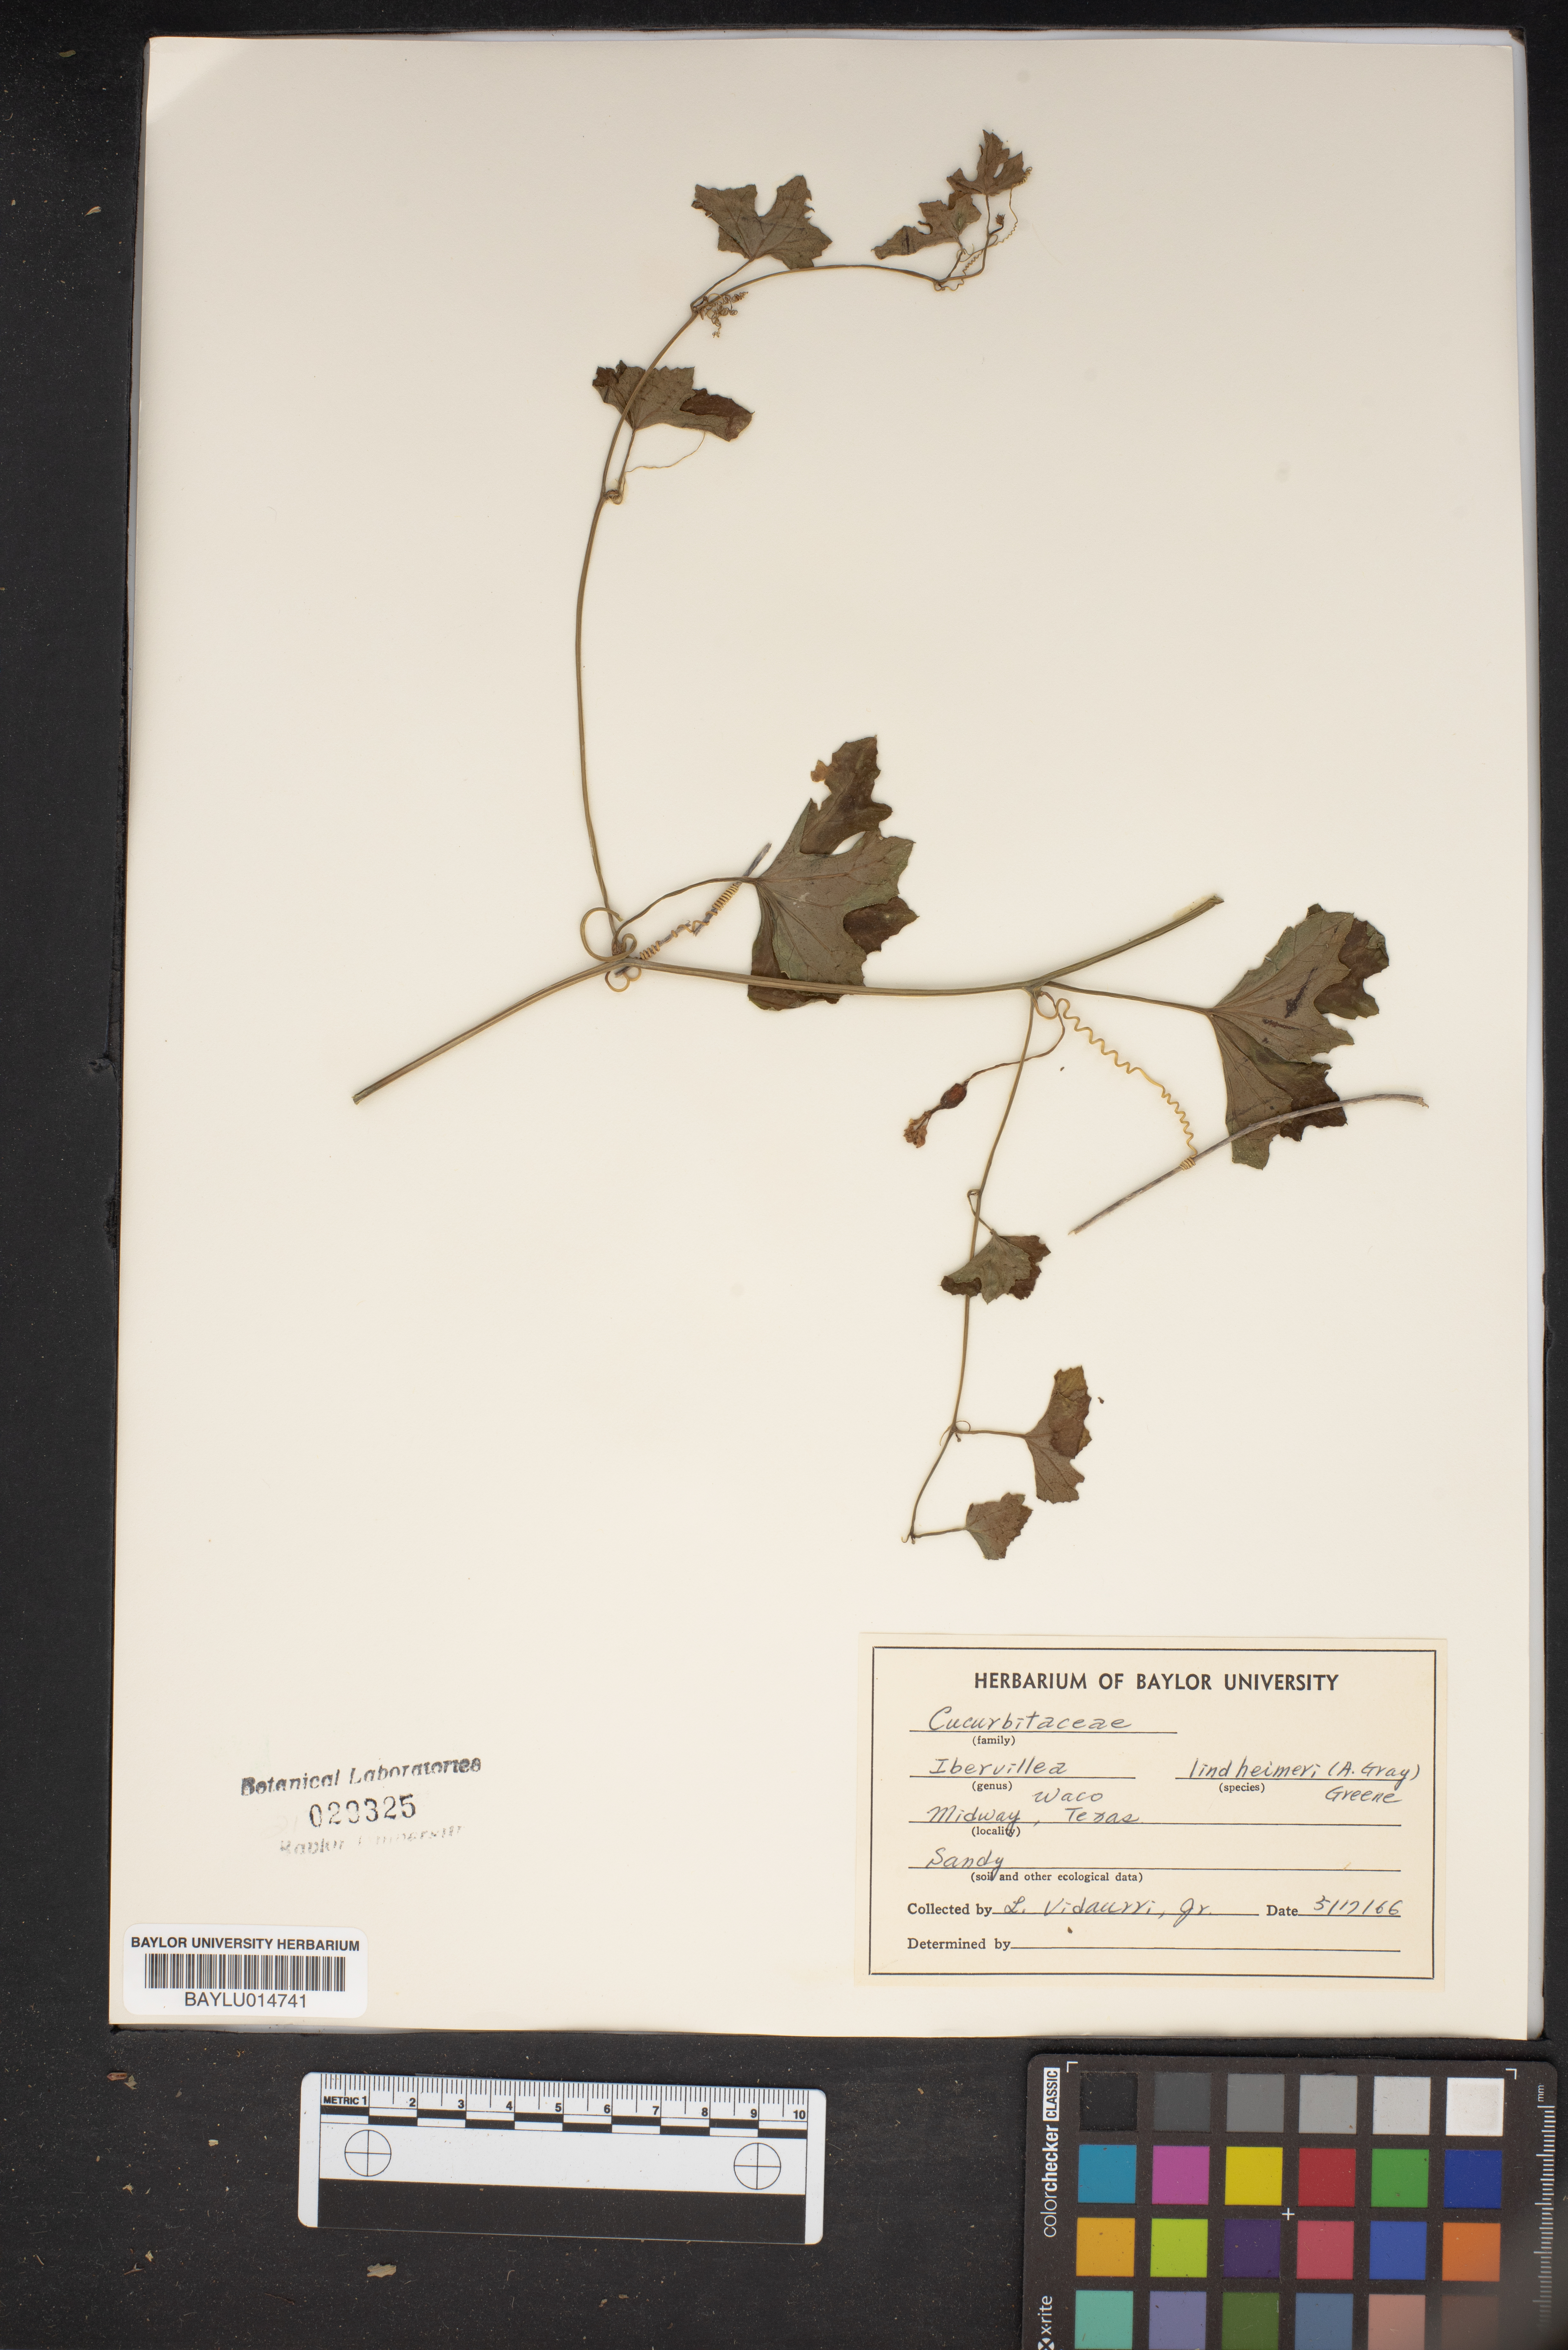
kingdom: Plantae
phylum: Tracheophyta
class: Magnoliopsida
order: Cucurbitales
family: Cucurbitaceae
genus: Ibervillea
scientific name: Ibervillea lindheimeri
